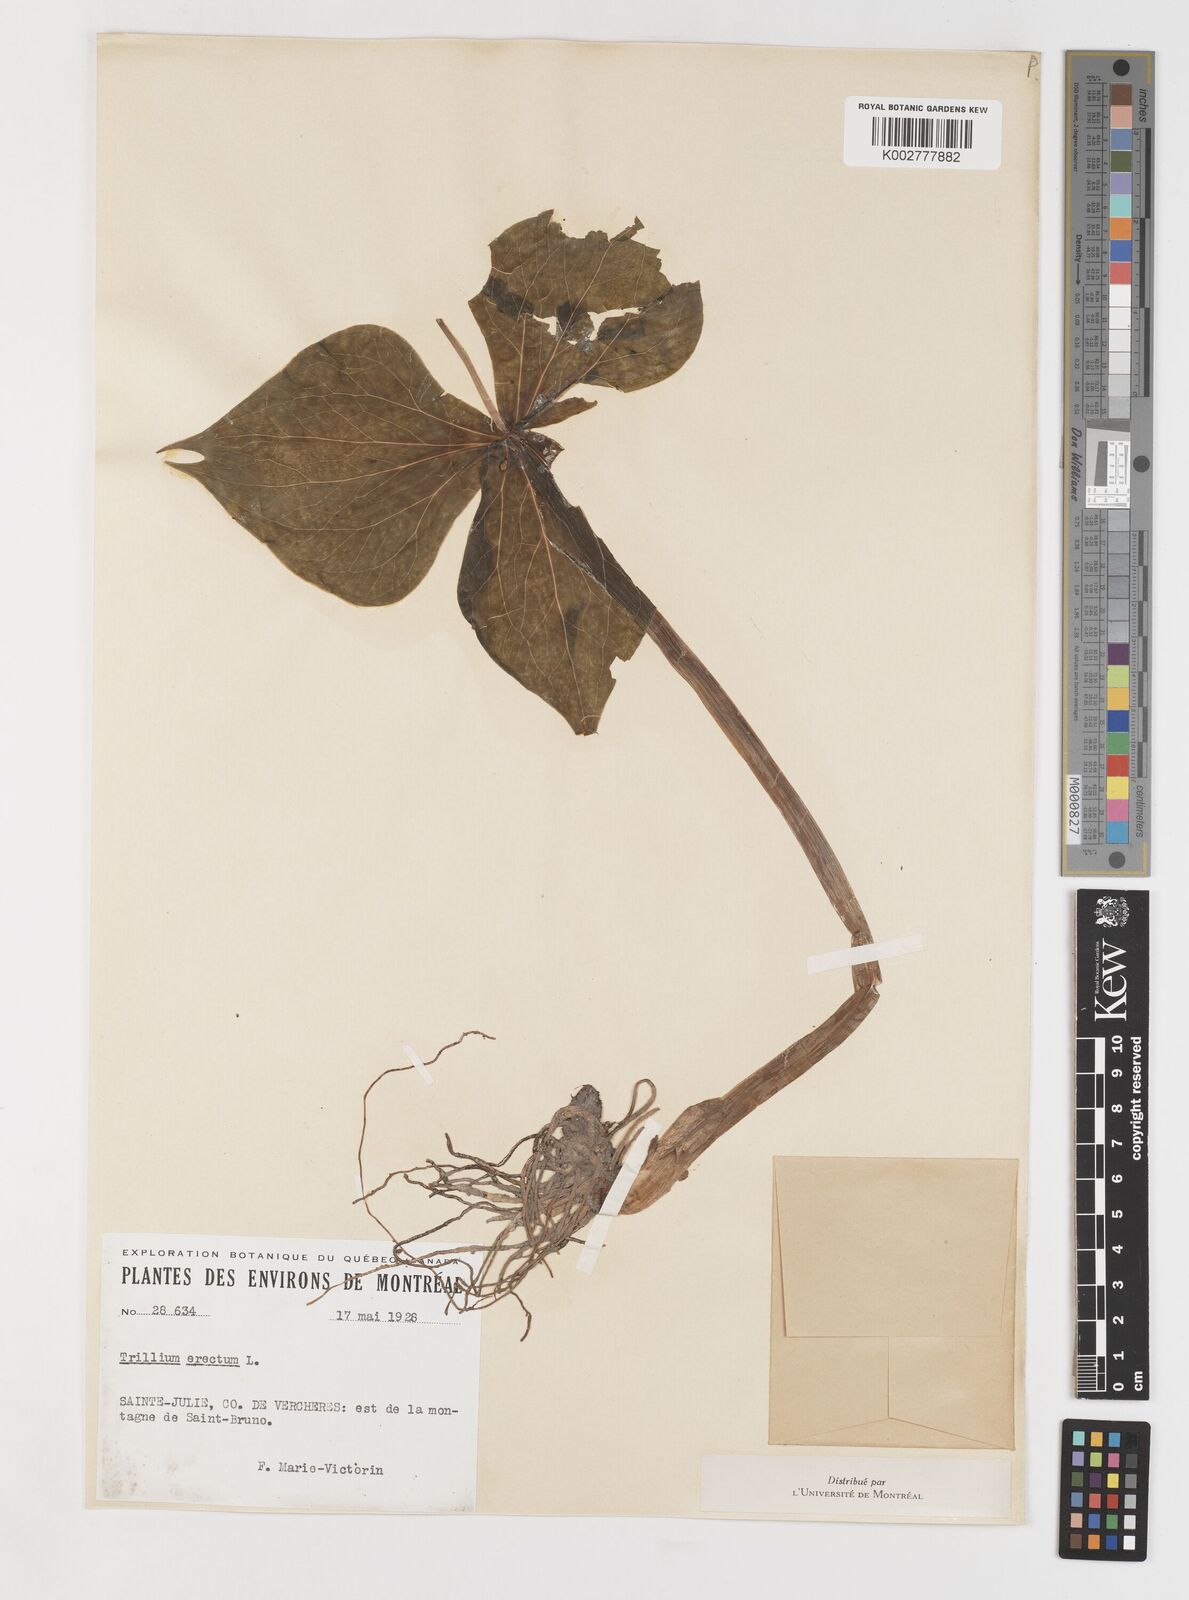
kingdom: Plantae
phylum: Tracheophyta
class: Liliopsida
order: Liliales
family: Melanthiaceae
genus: Trillium
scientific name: Trillium erectum
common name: Purple trillium
